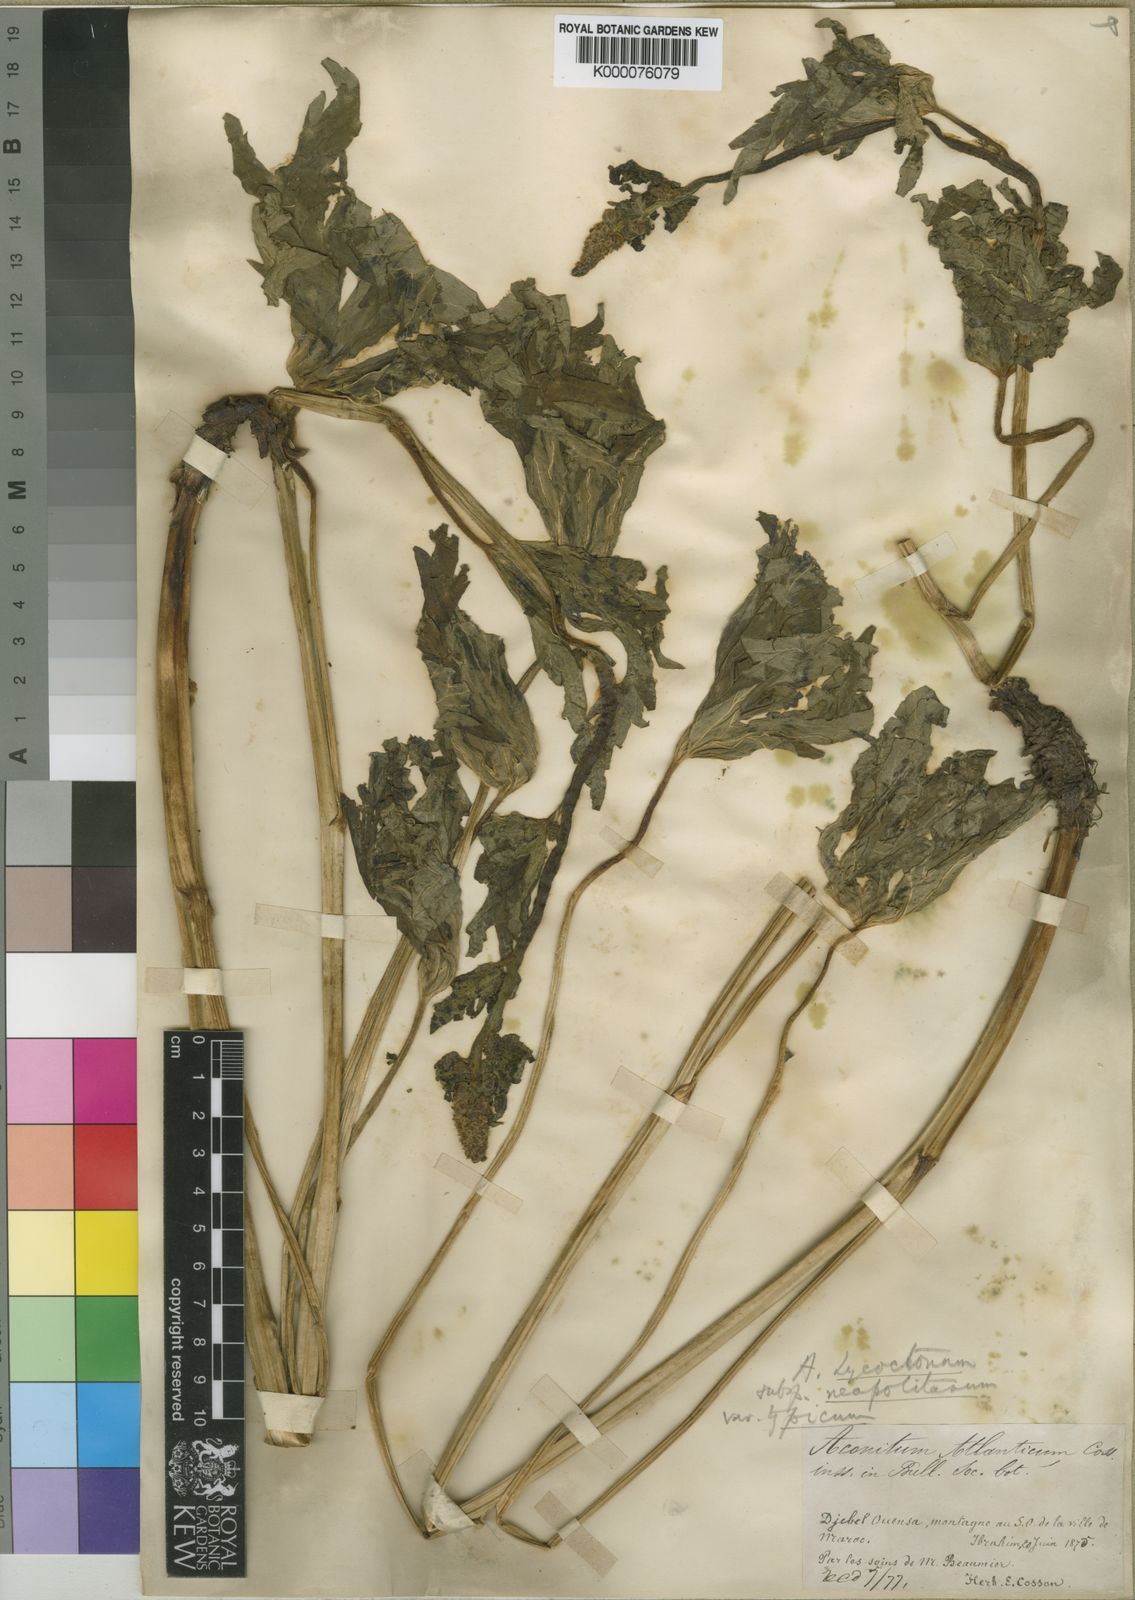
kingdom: Plantae
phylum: Tracheophyta
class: Magnoliopsida
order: Ranunculales
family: Ranunculaceae
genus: Aconitum
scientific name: Aconitum lycoctonum
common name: Wolf's-bane
